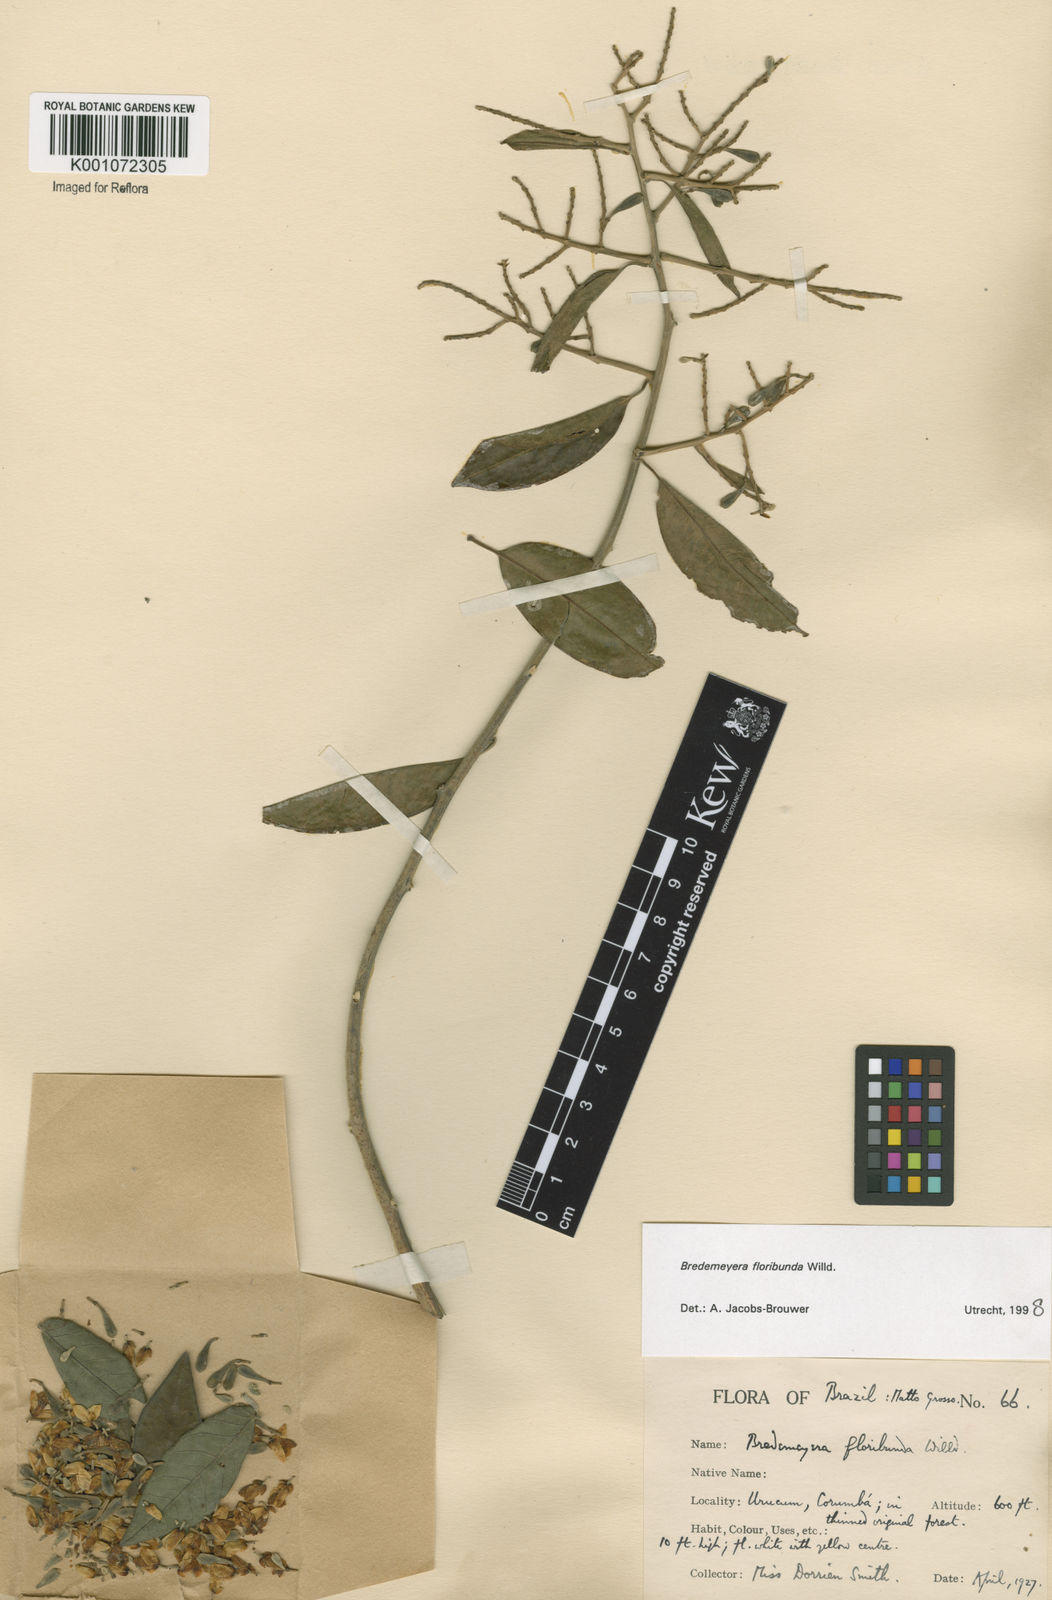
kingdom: Plantae
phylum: Tracheophyta
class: Magnoliopsida
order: Fabales
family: Polygalaceae
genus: Bredemeyera
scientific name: Bredemeyera floribunda
